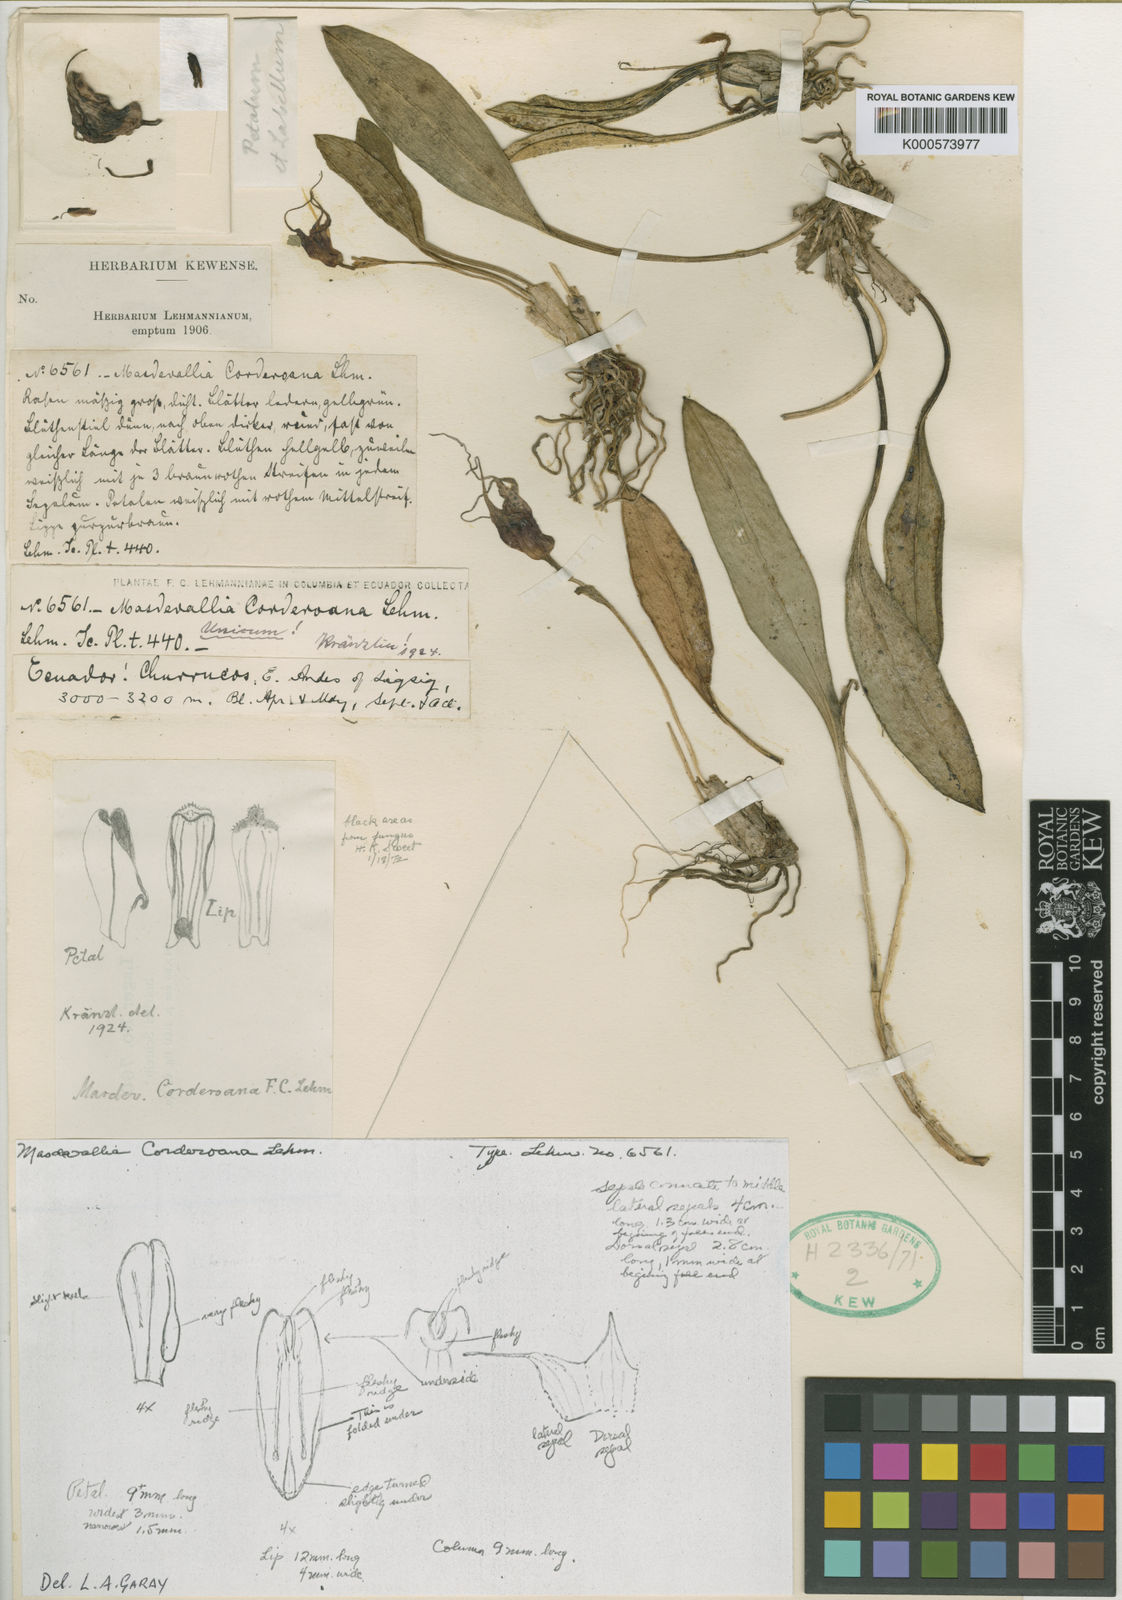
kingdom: Plantae
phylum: Tracheophyta
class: Liliopsida
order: Asparagales
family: Orchidaceae
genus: Masdevallia
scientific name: Masdevallia corderoana
